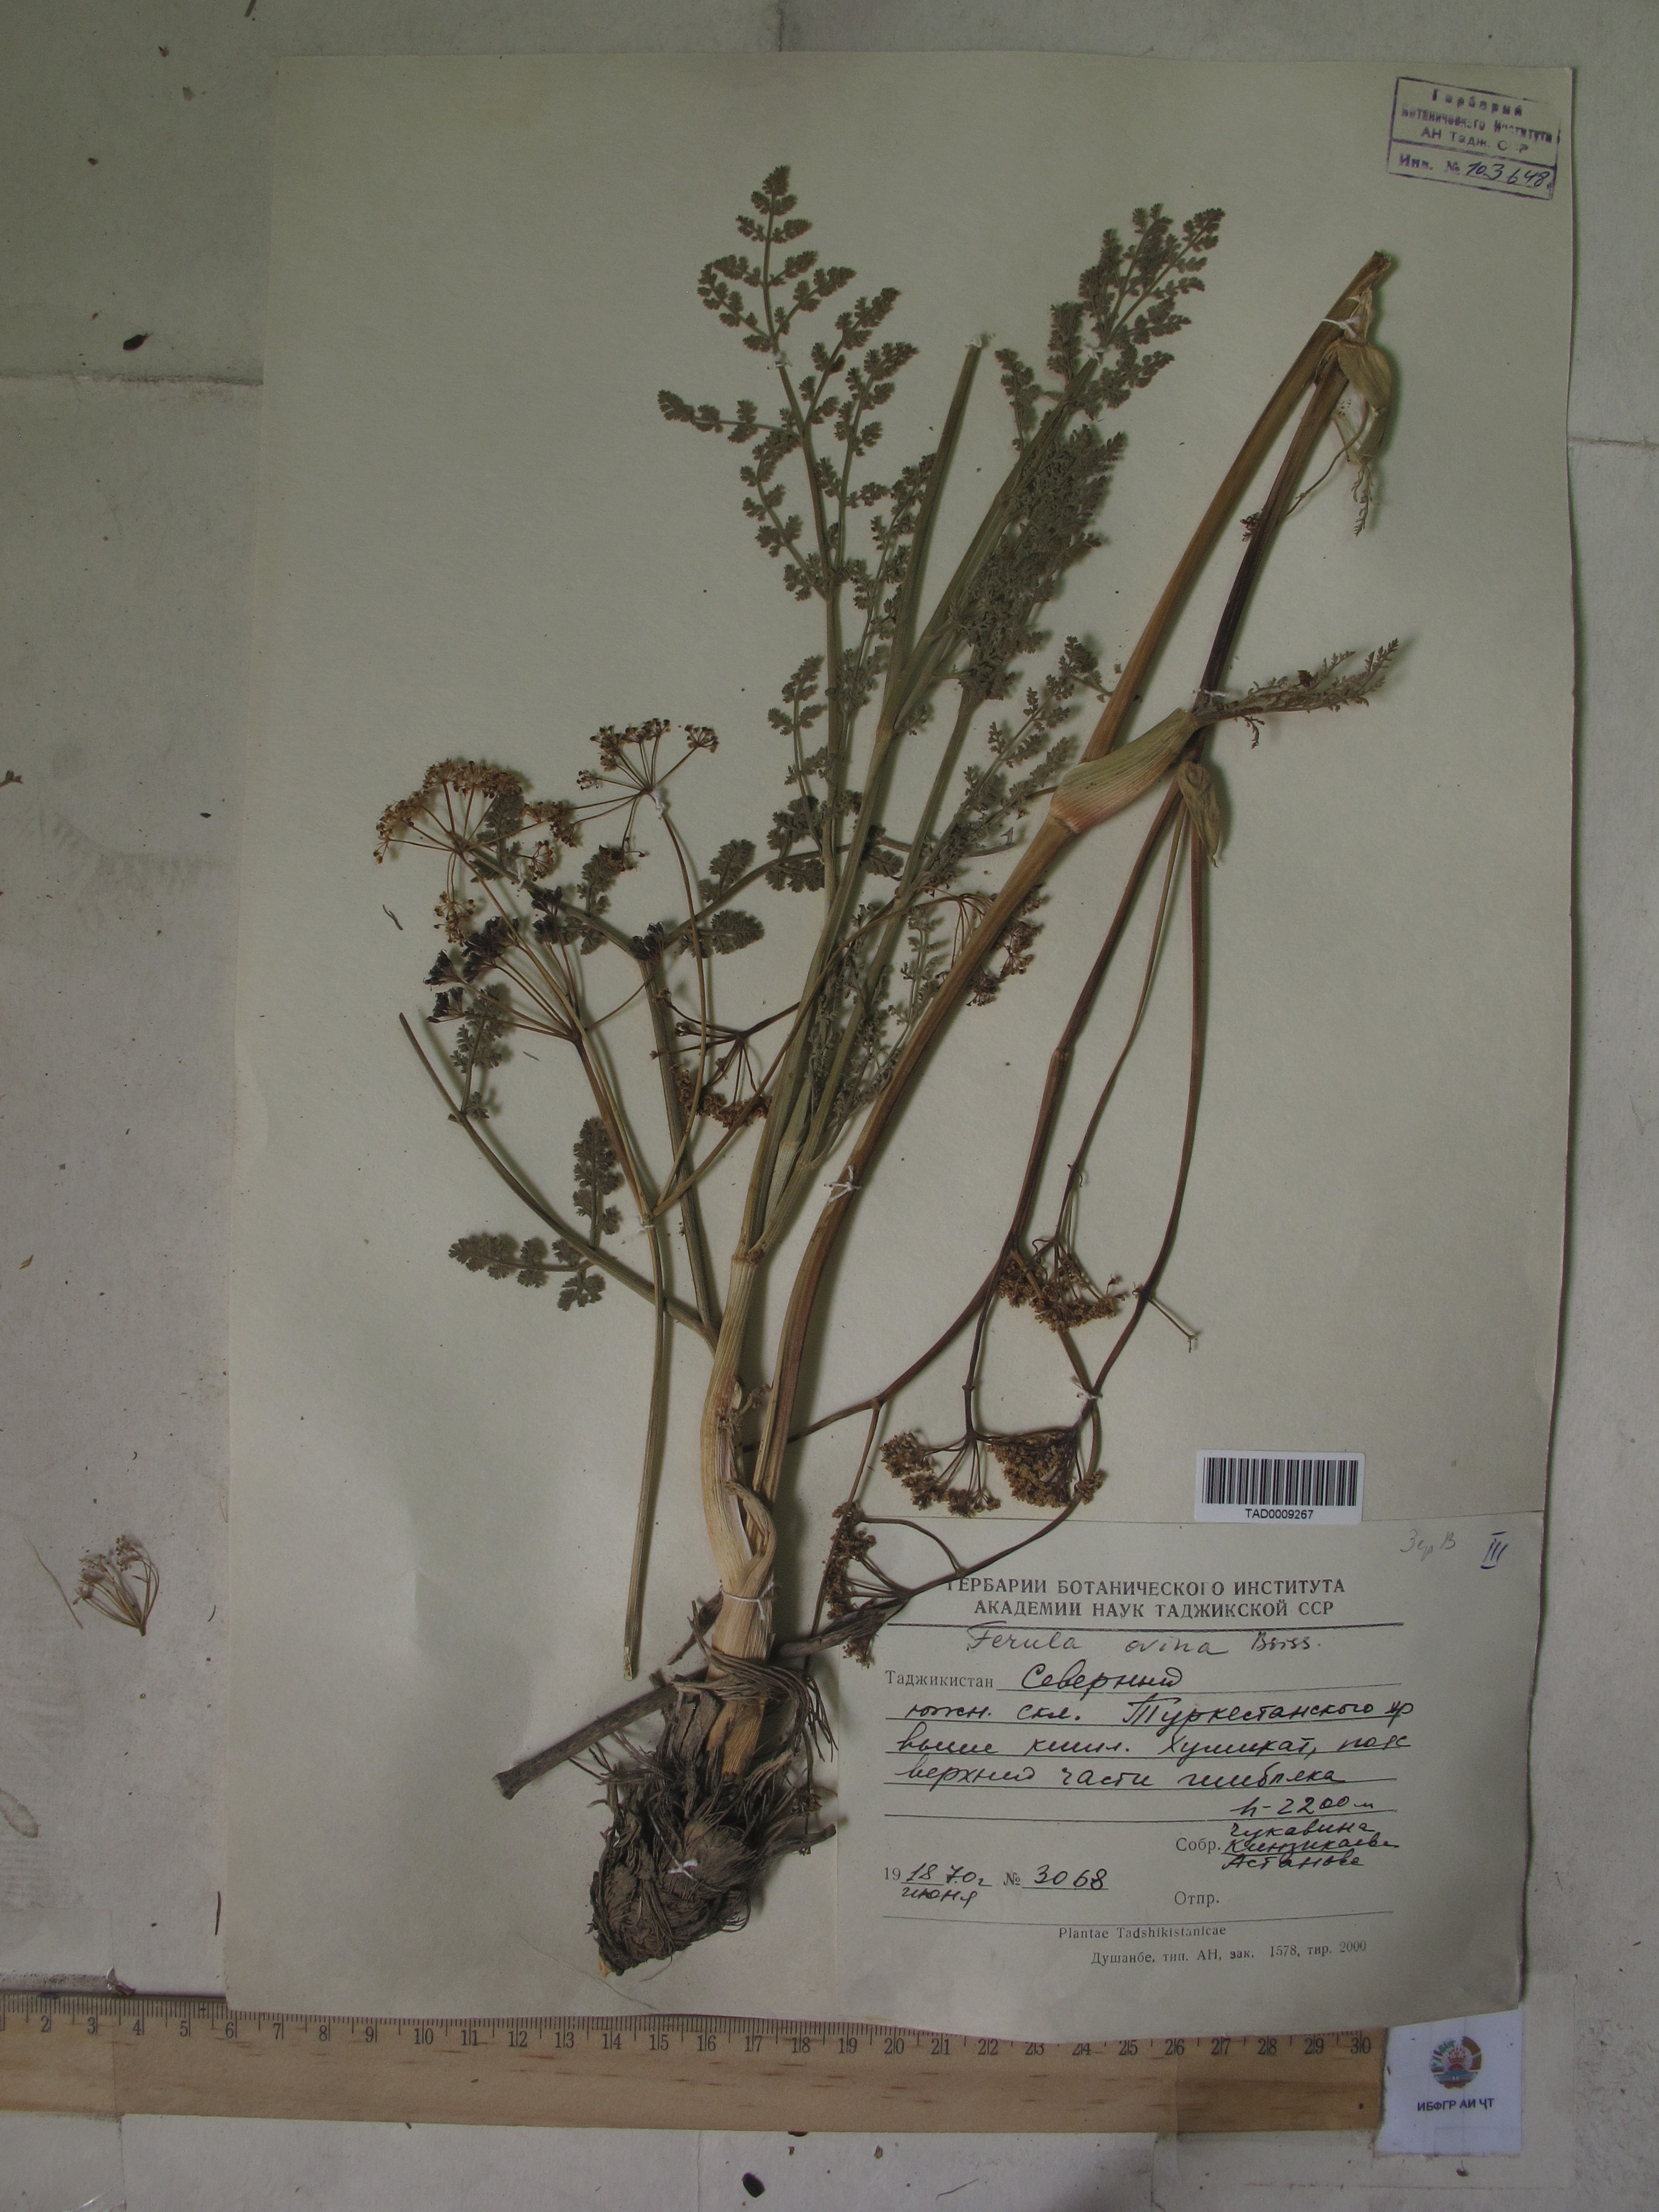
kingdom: Plantae
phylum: Tracheophyta
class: Magnoliopsida
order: Apiales
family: Apiaceae
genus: Ferula
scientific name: Ferula ovina
